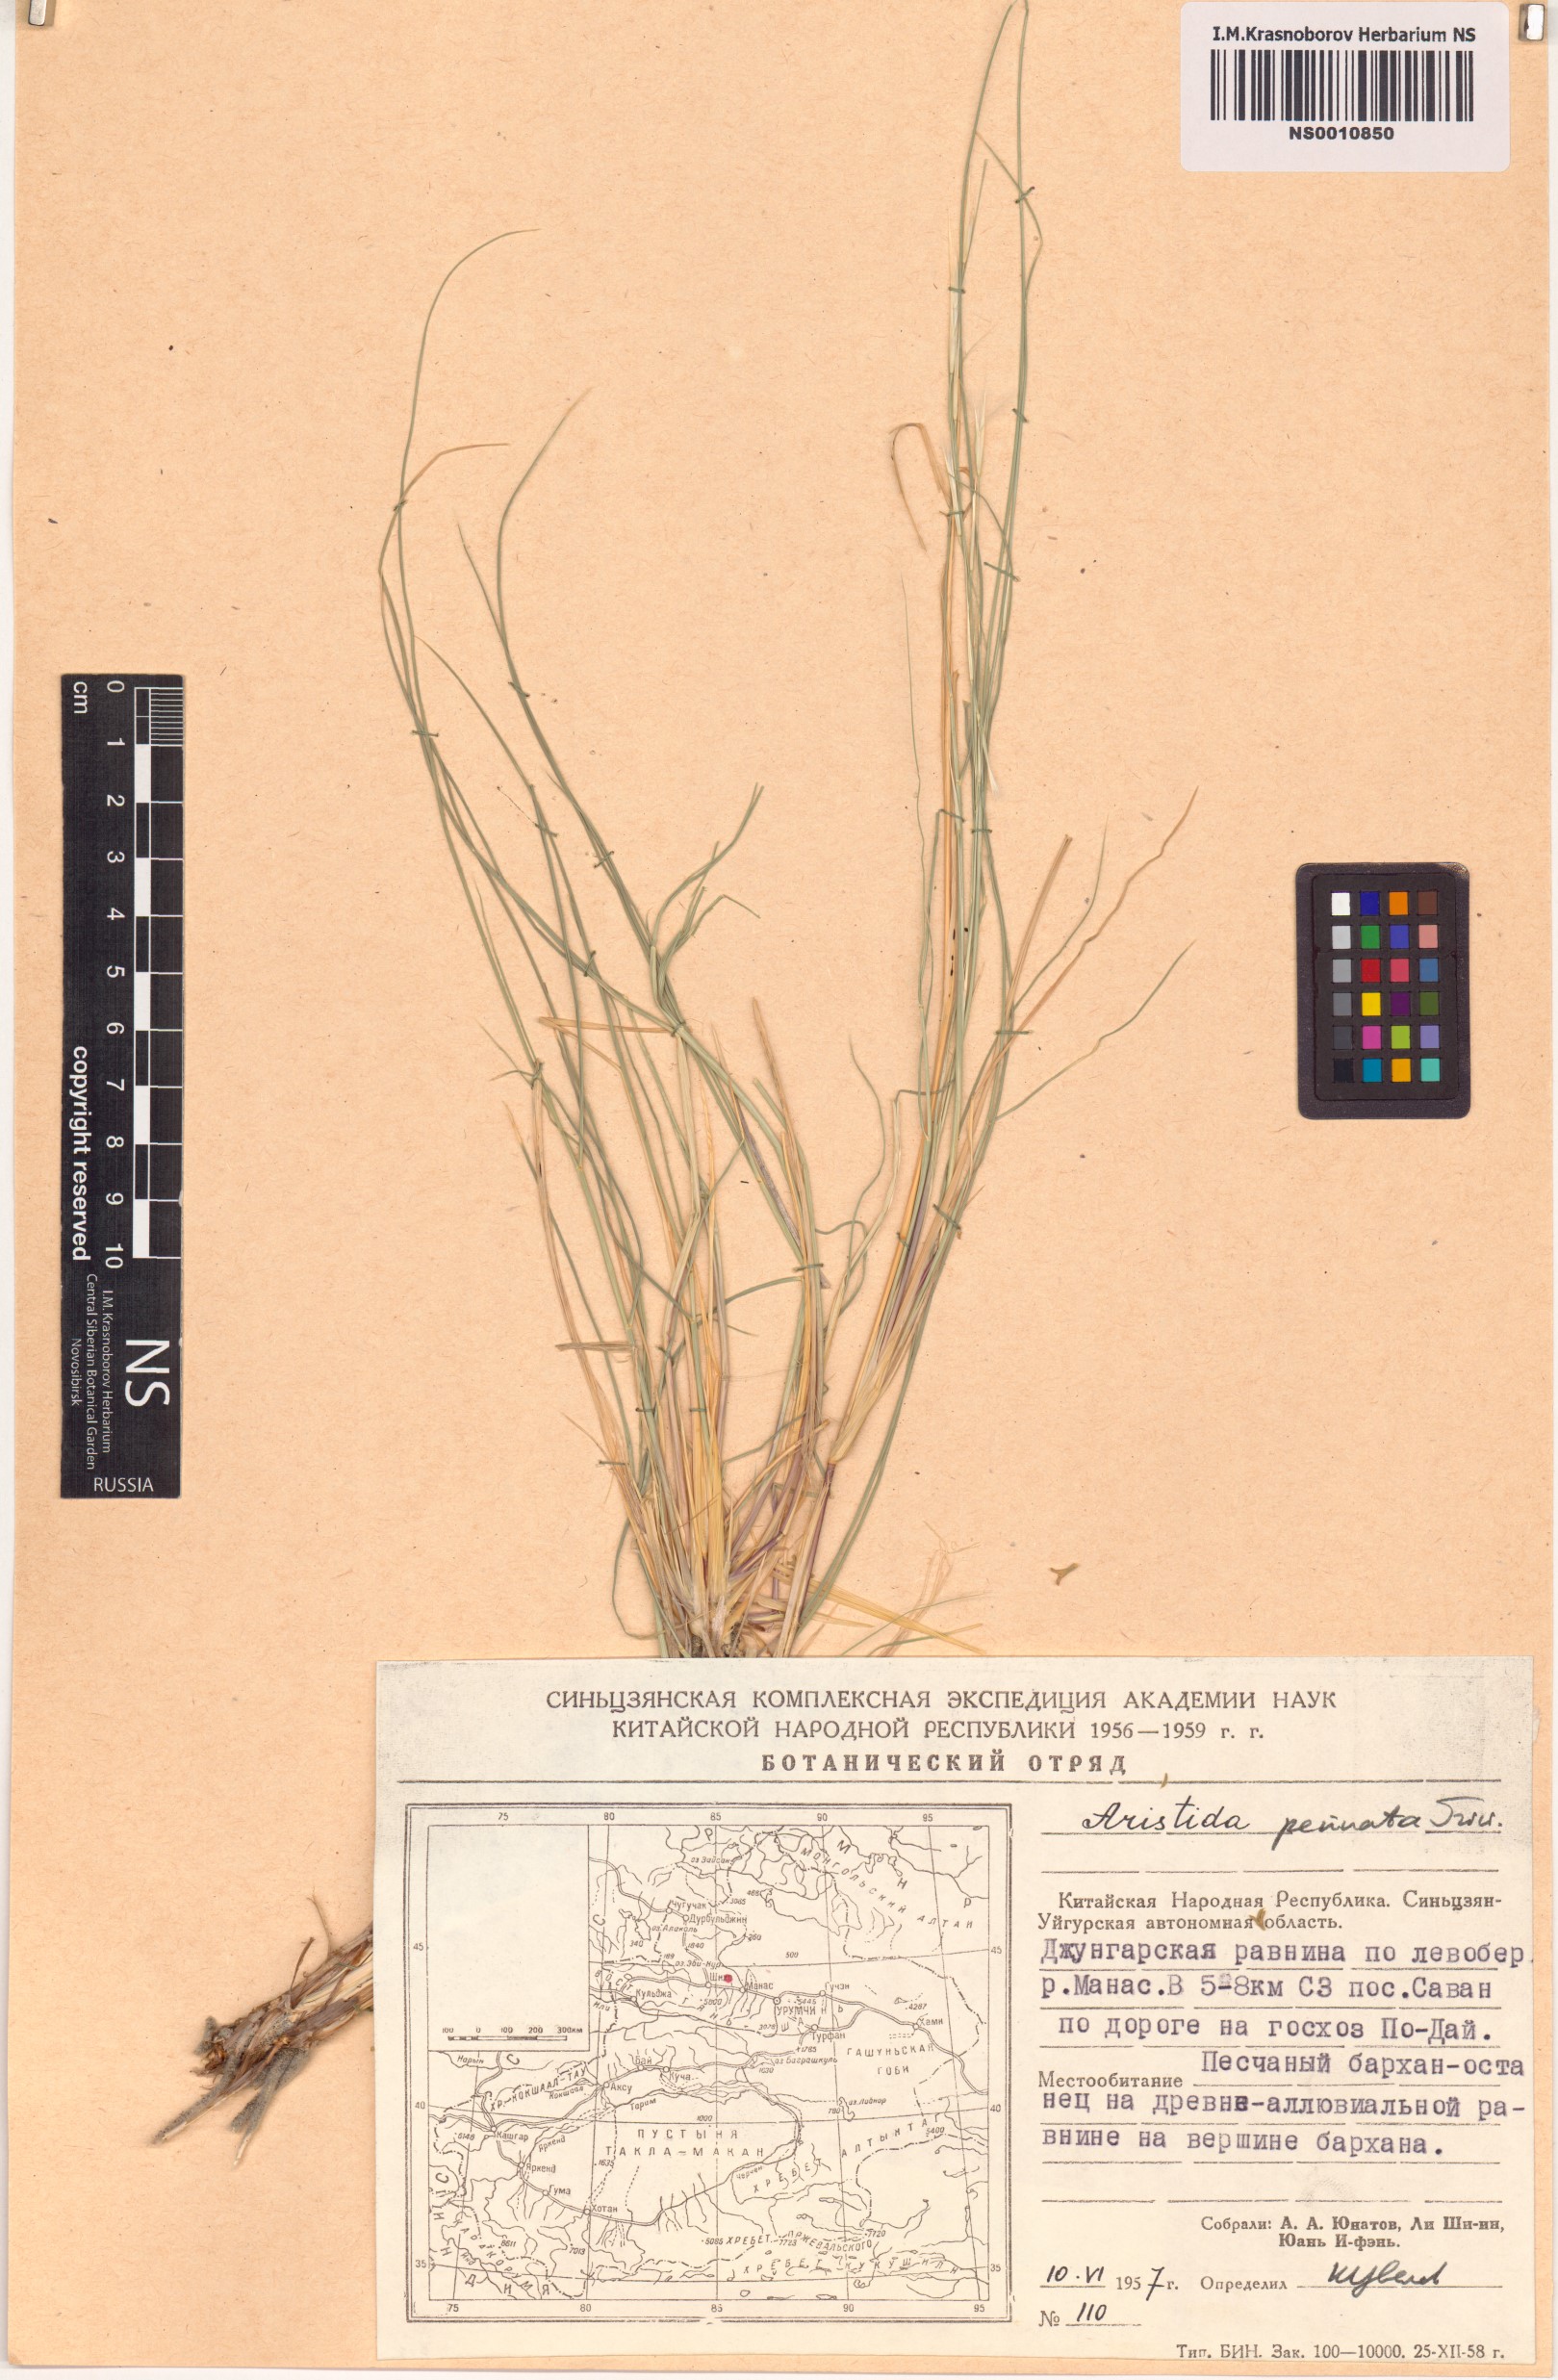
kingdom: Plantae
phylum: Tracheophyta
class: Liliopsida
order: Poales
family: Poaceae
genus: Stipagrostis
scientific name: Stipagrostis pennata
